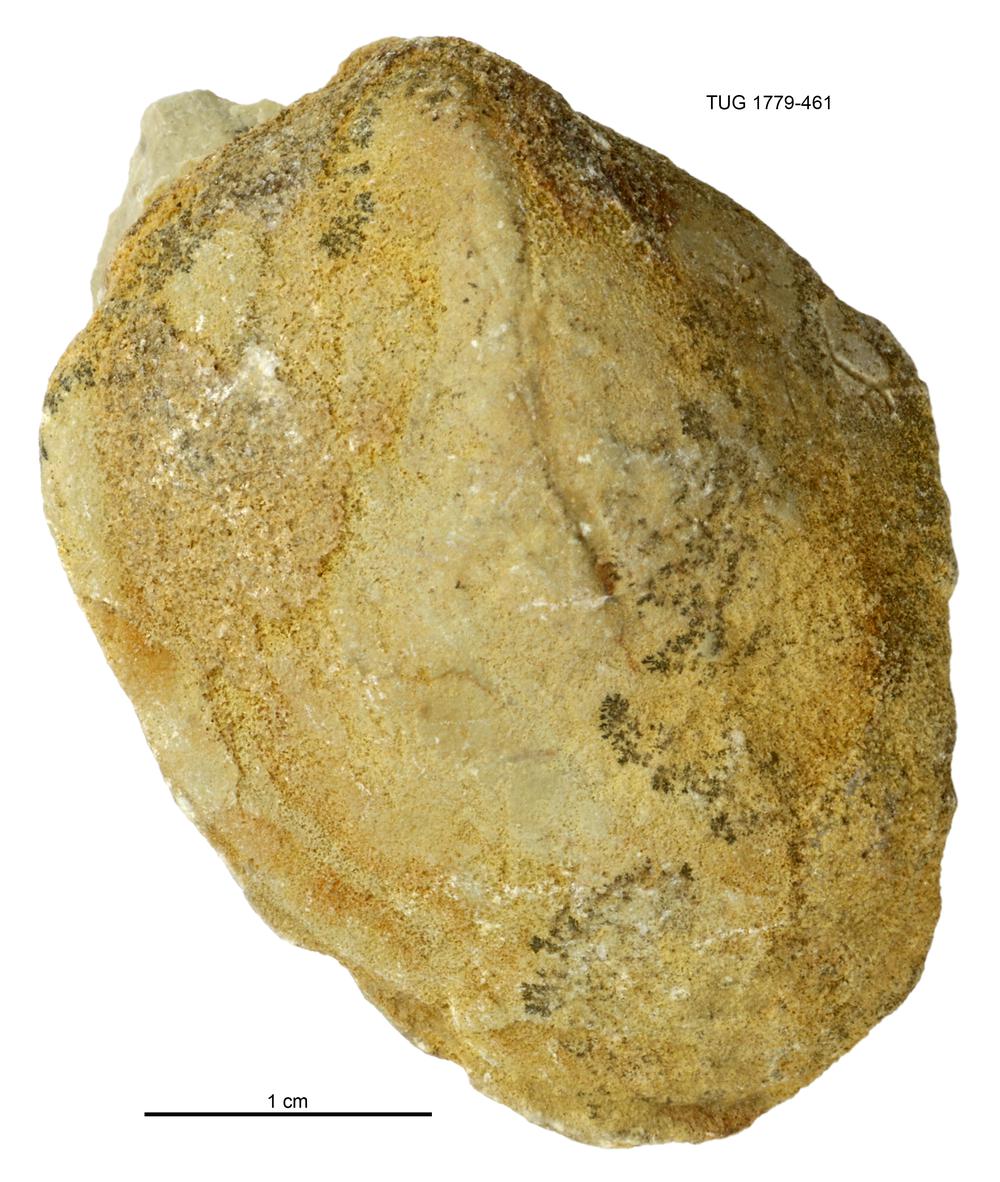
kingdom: Animalia
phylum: Mollusca
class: Bivalvia
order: Modiomorphida
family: Modiomorphidae
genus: Modiolopsis
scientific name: Modiolopsis
